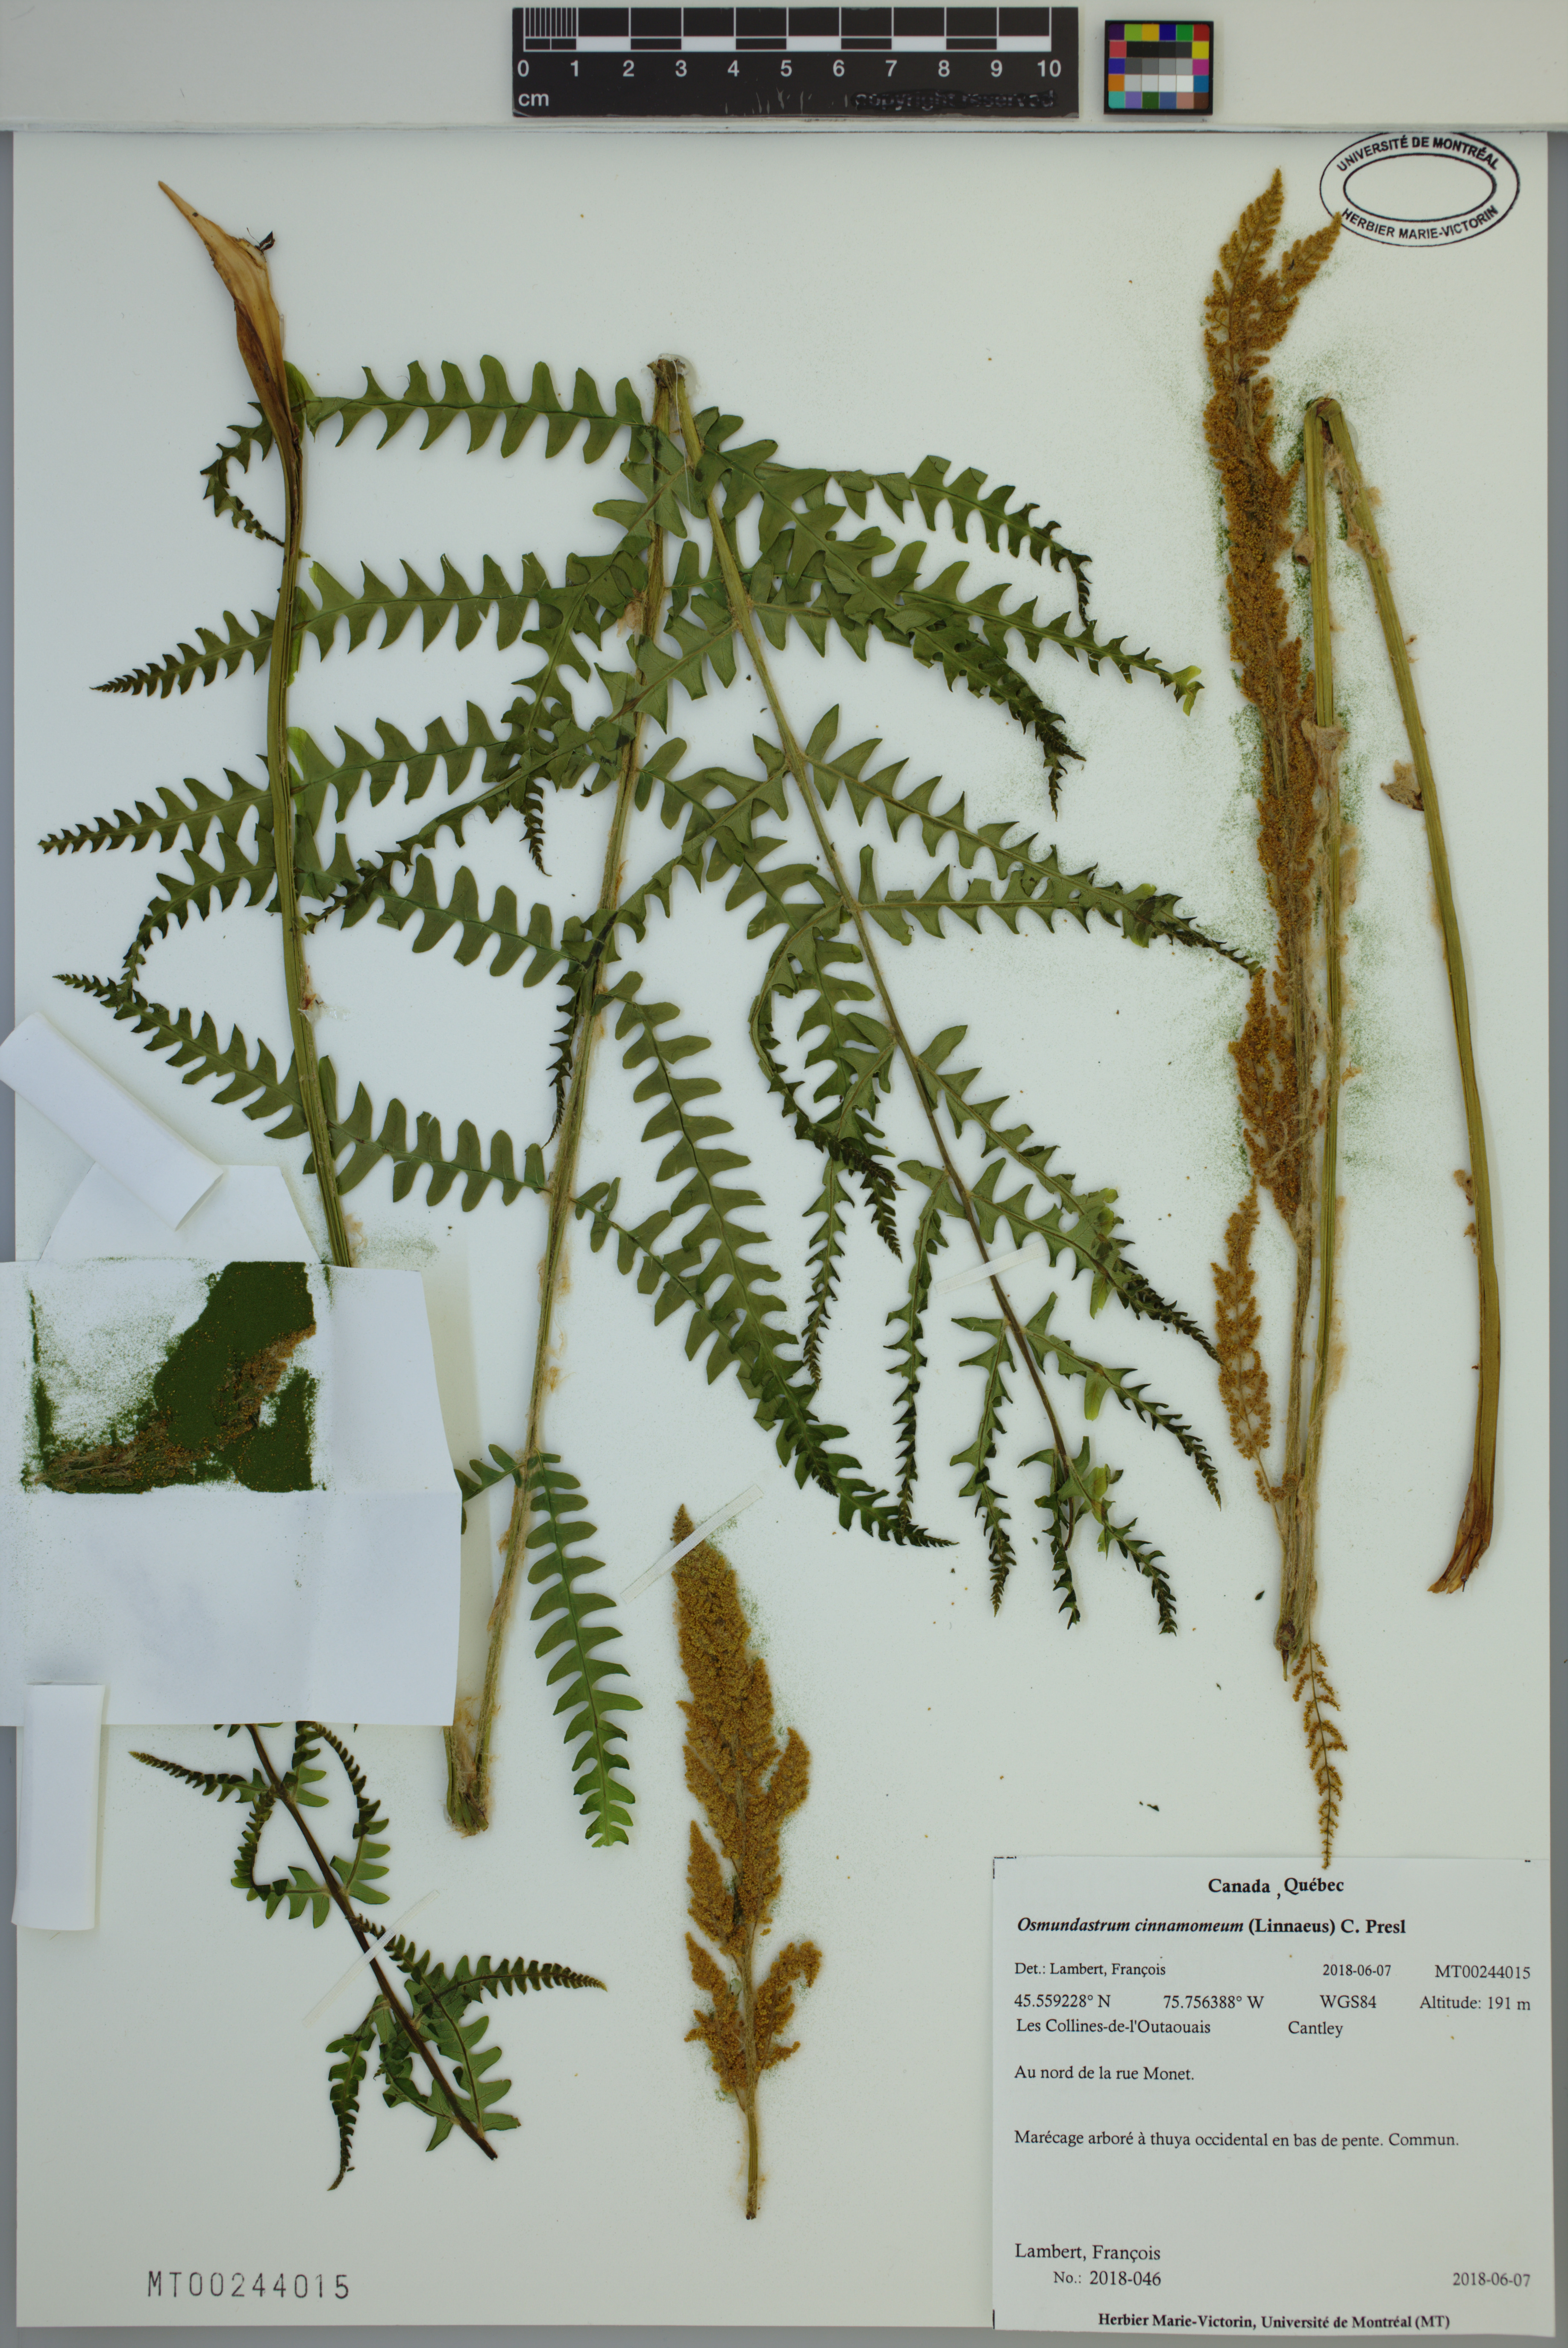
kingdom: Plantae
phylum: Tracheophyta
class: Polypodiopsida
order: Osmundales
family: Osmundaceae
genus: Osmundastrum
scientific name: Osmundastrum cinnamomeum
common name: Cinnamon fern
